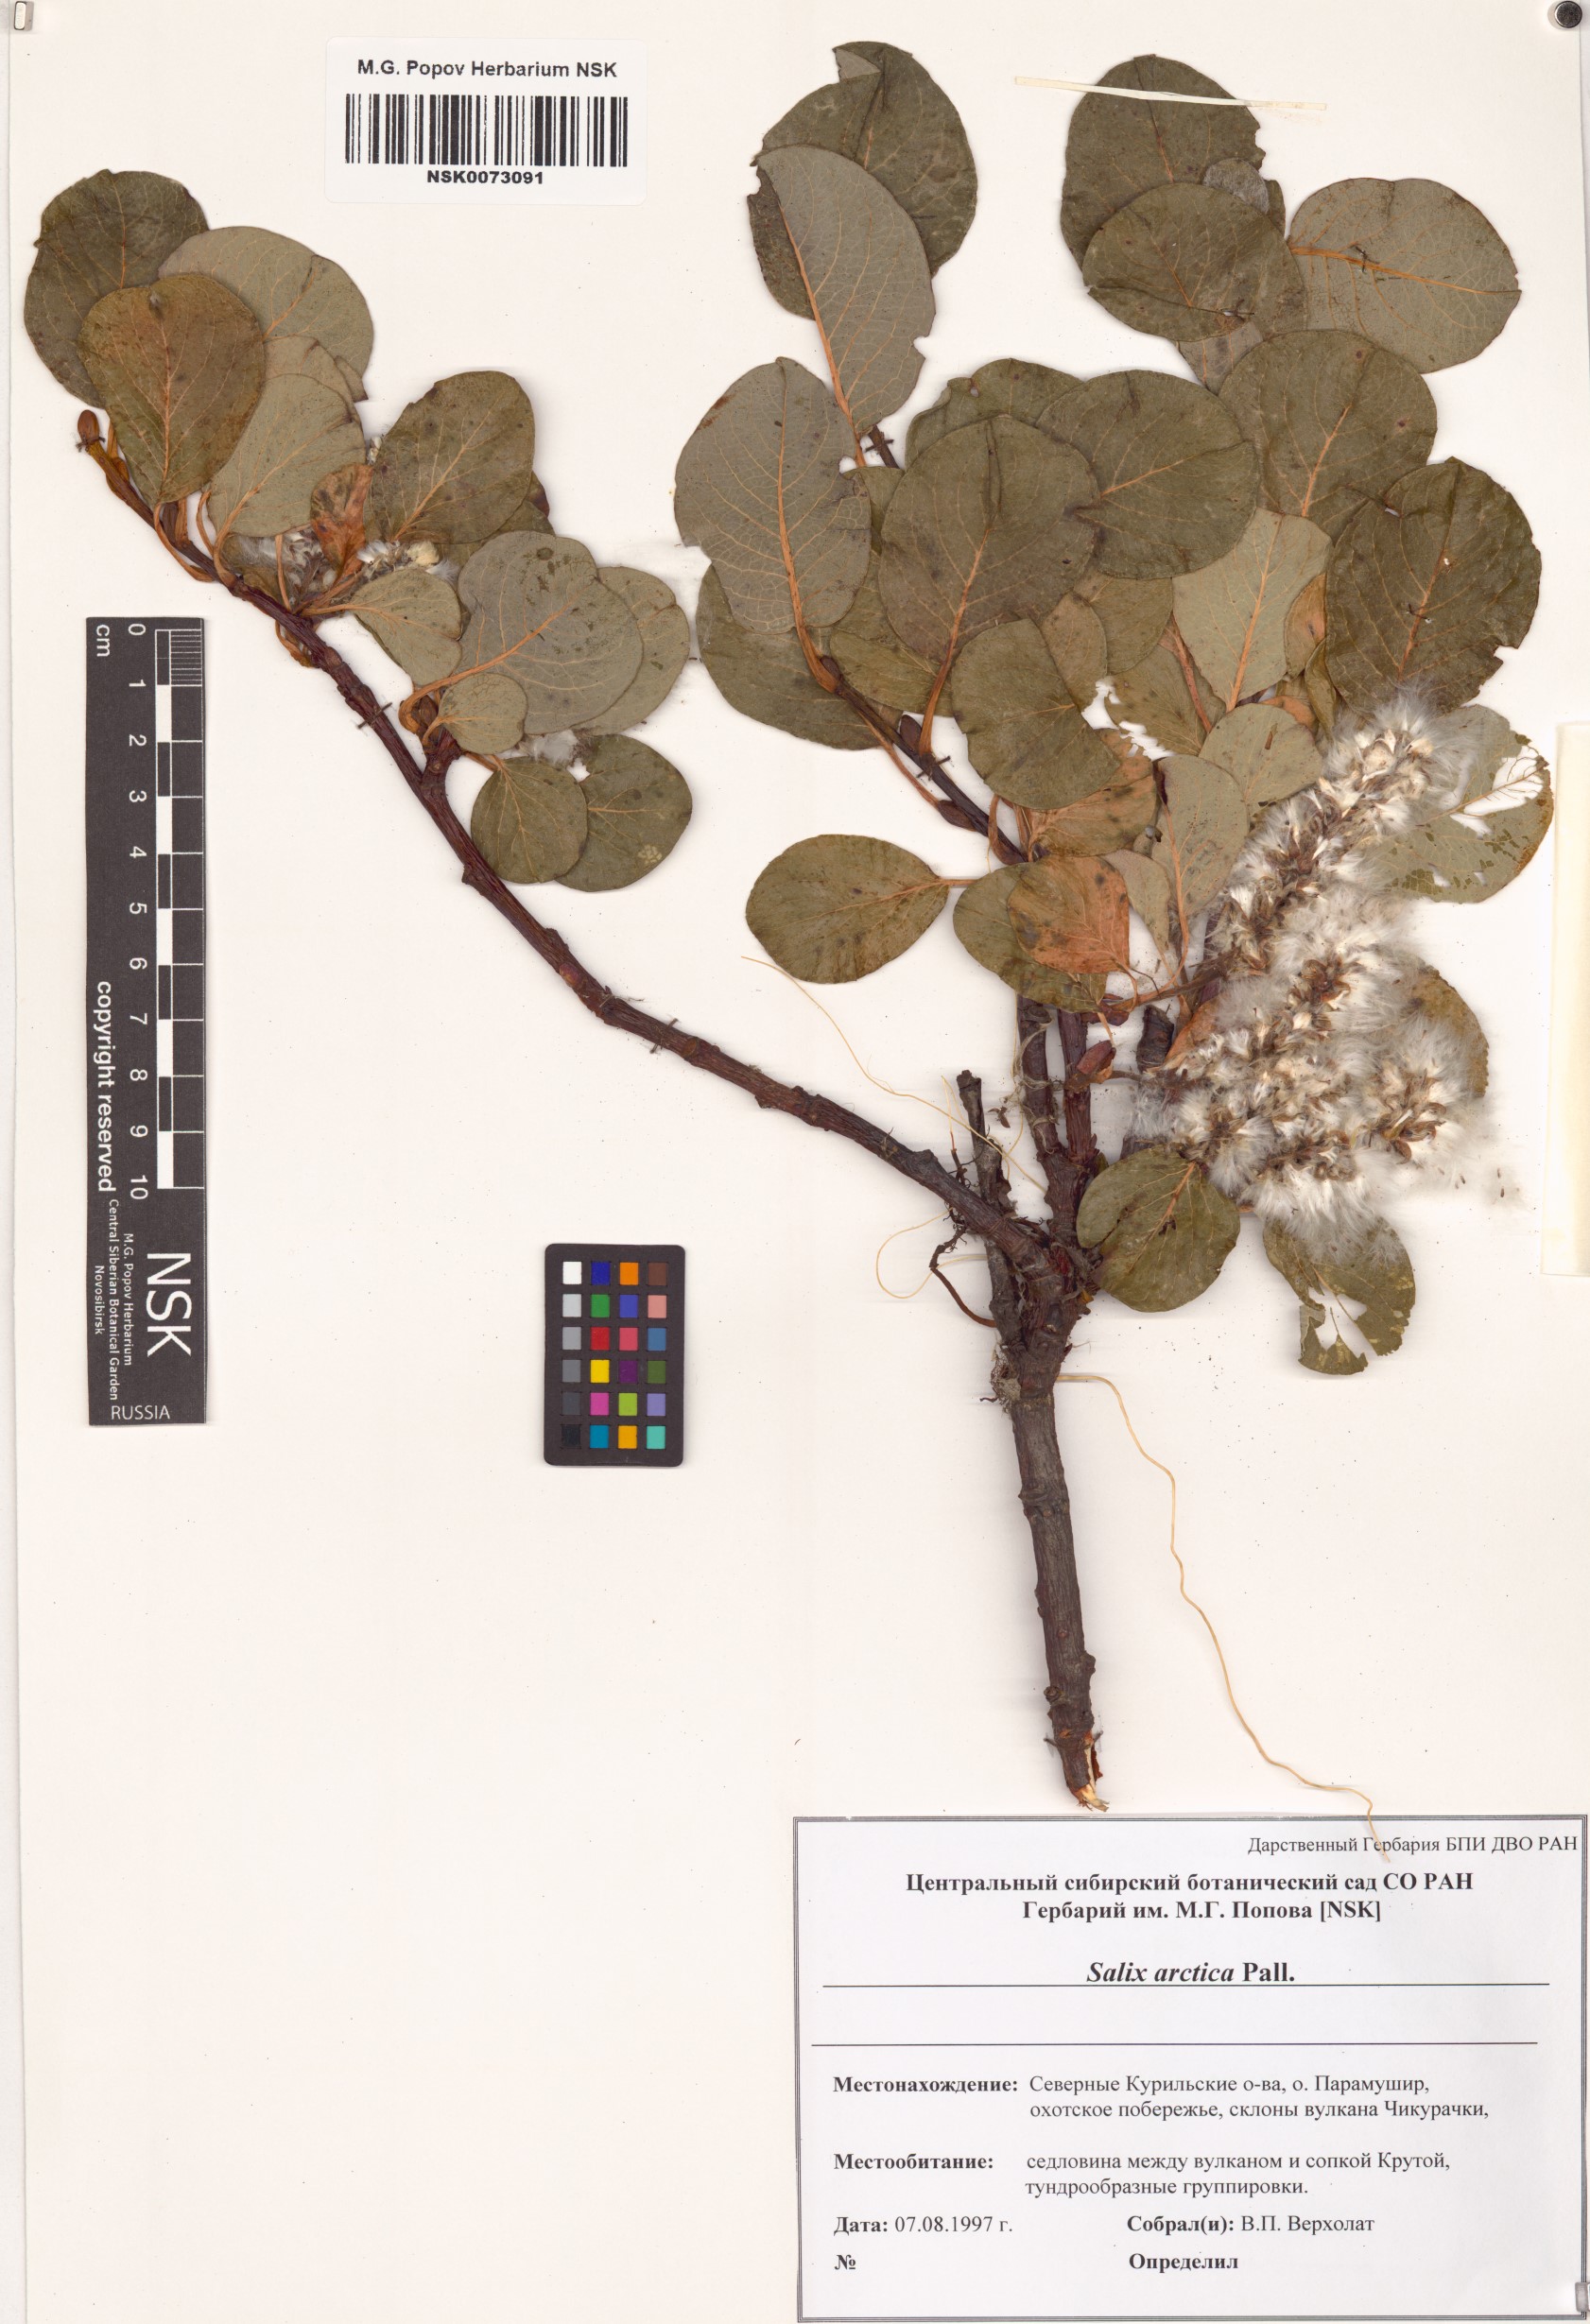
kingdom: Plantae
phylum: Tracheophyta
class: Magnoliopsida
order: Malpighiales
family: Salicaceae
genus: Salix
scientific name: Salix arctica
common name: Arctic willow
